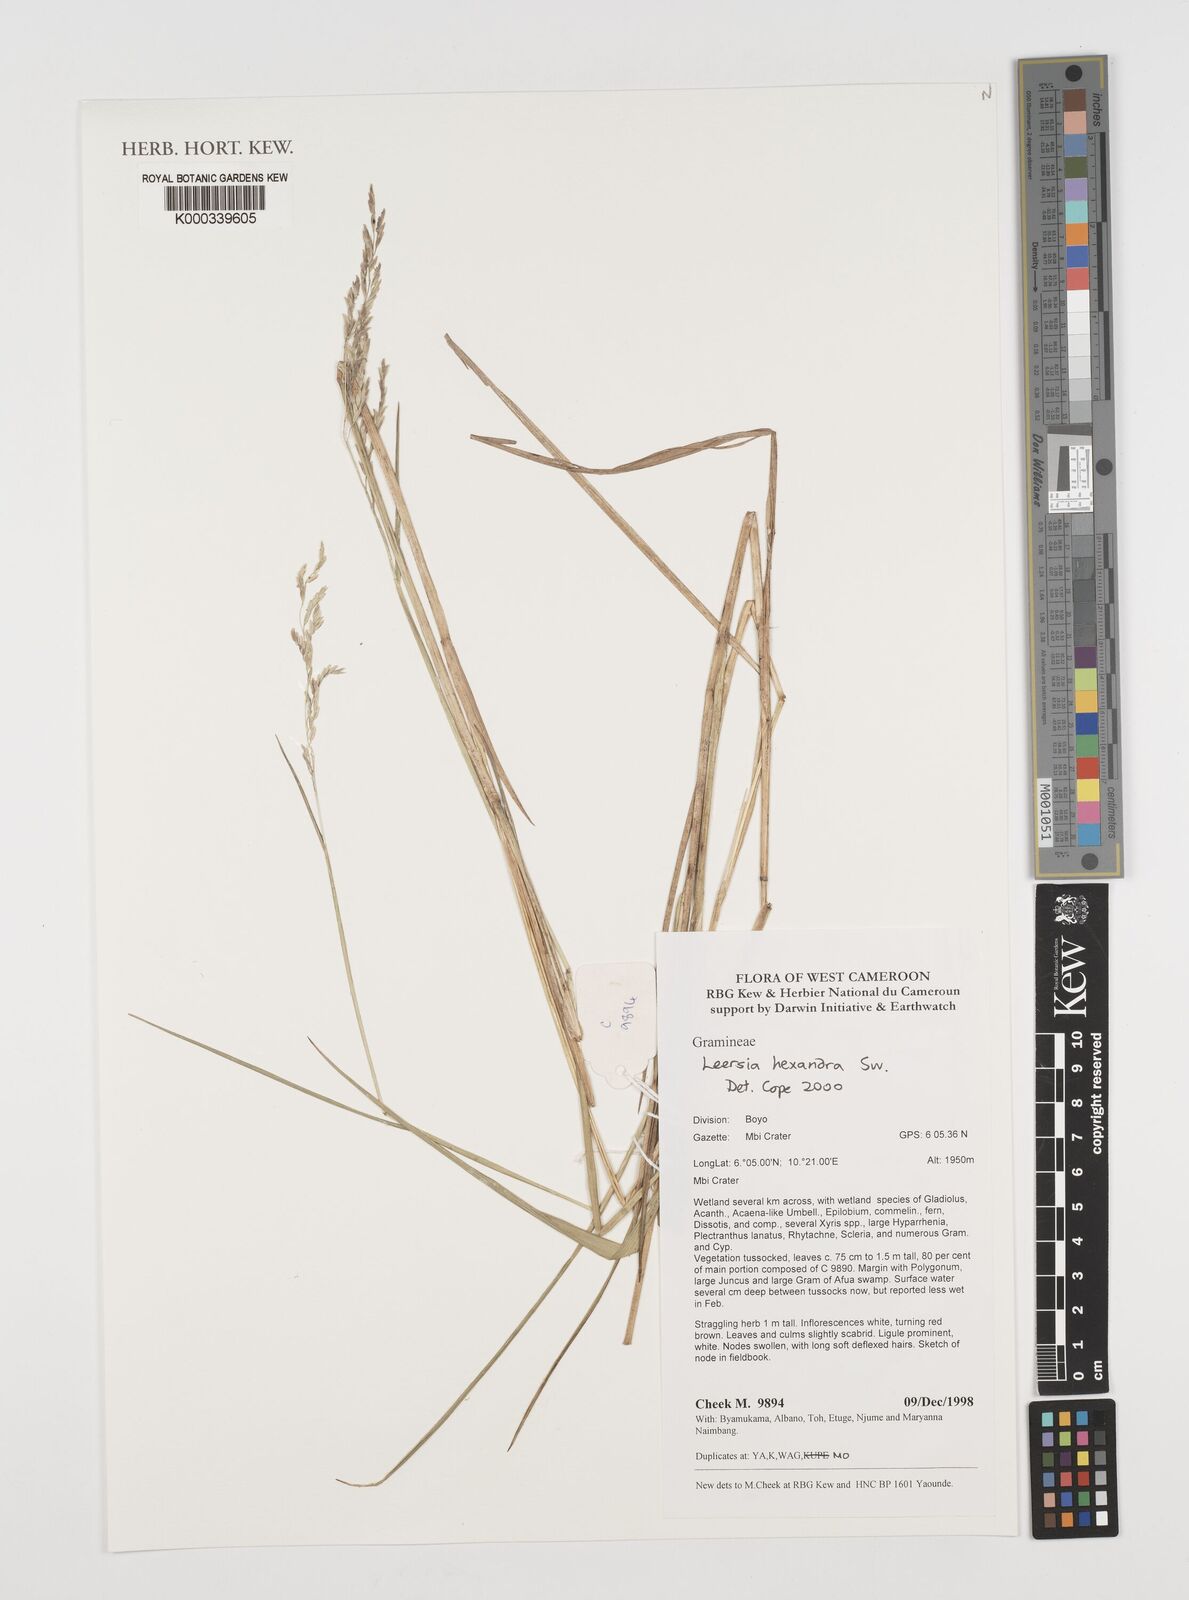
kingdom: Plantae
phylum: Tracheophyta
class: Liliopsida
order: Poales
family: Poaceae
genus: Leersia
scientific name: Leersia hexandra
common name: Southern cut grass
